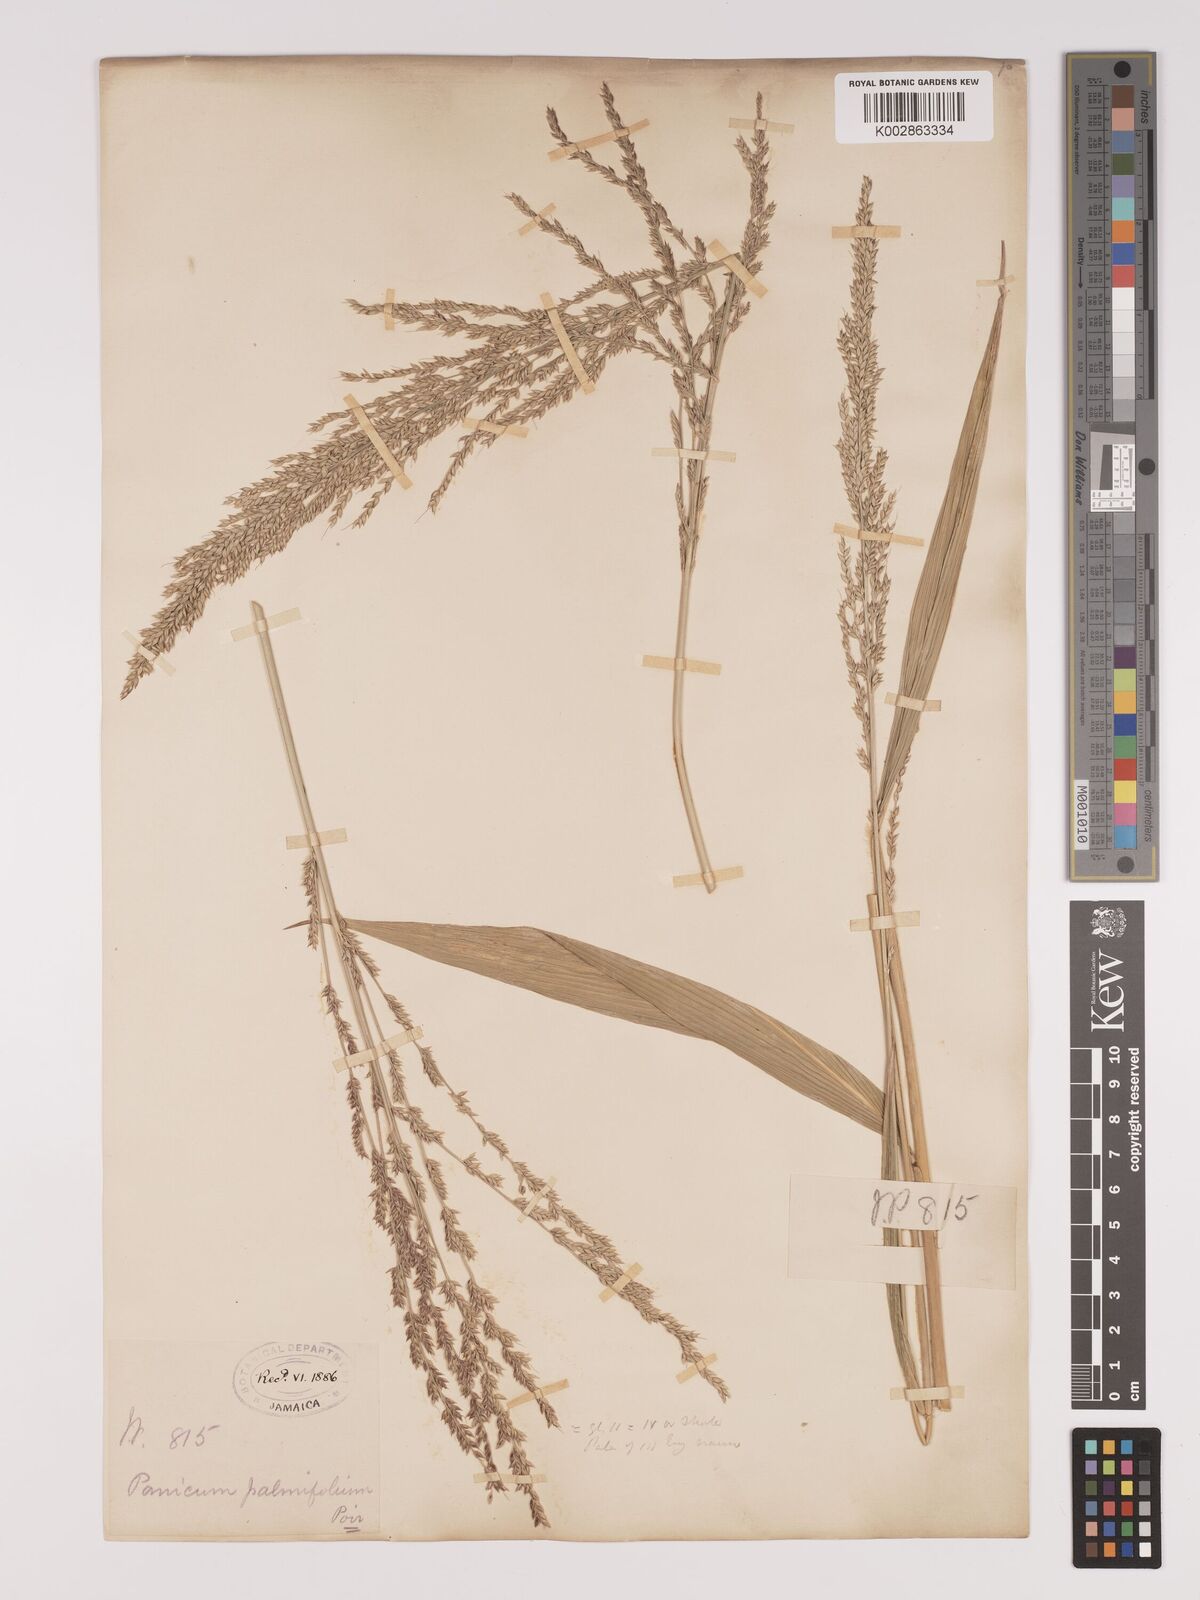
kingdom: Plantae
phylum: Tracheophyta
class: Liliopsida
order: Poales
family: Poaceae
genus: Setaria
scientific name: Setaria palmifolia
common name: Broadleaved bristlegrass
